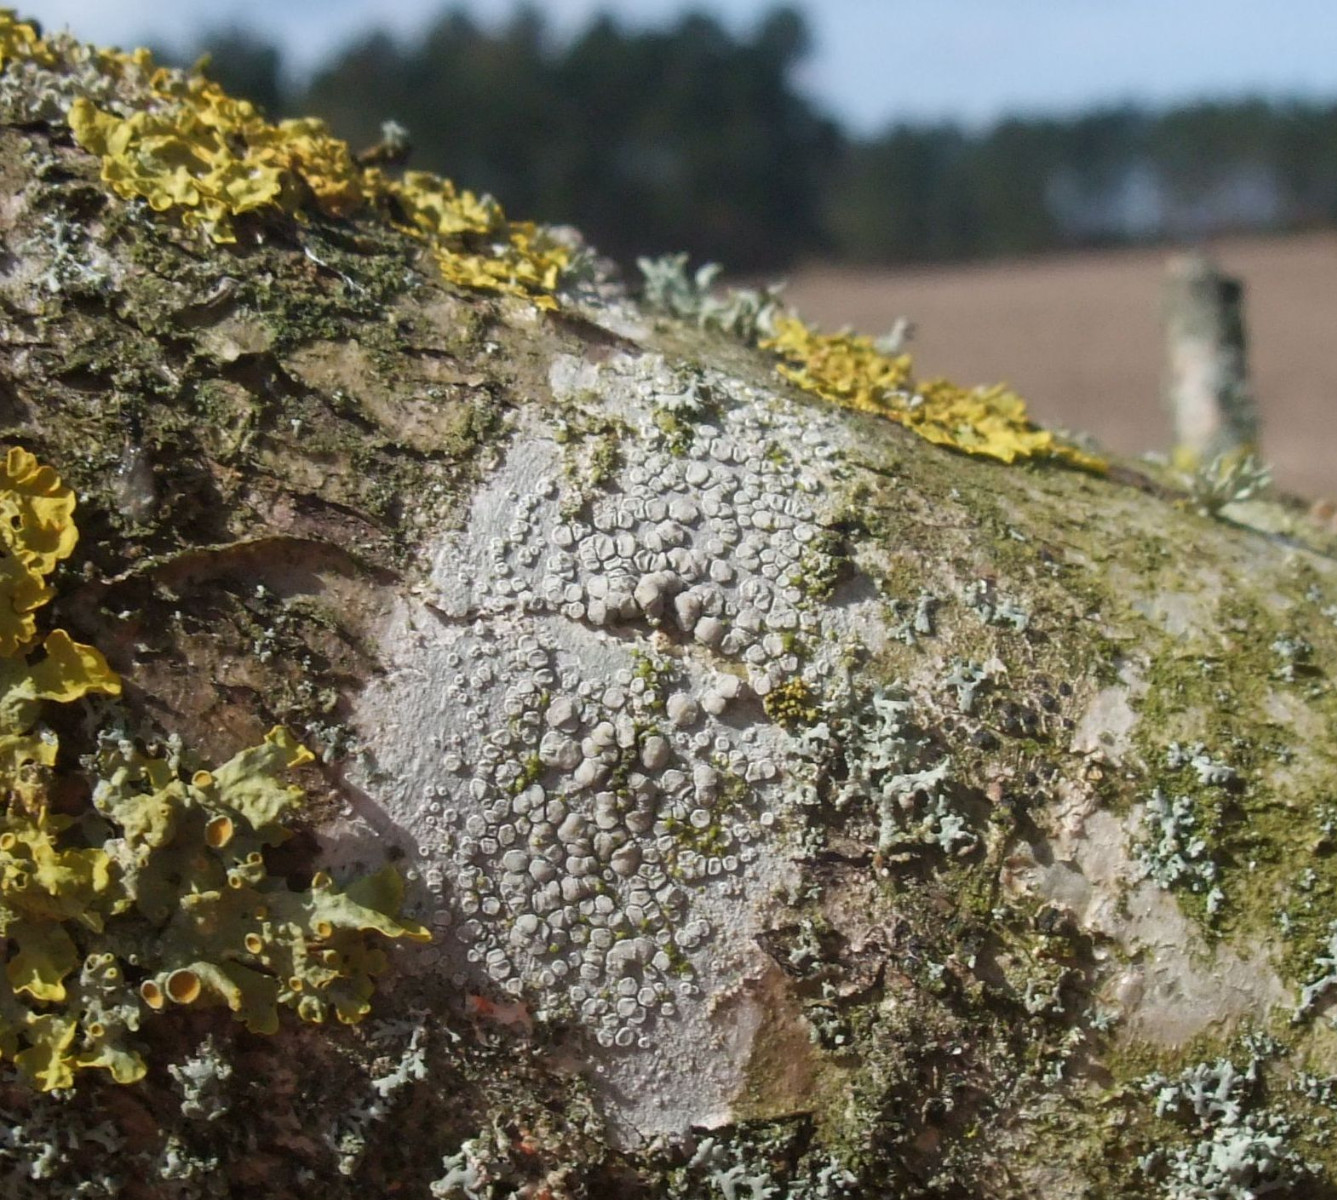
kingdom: Fungi
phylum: Ascomycota
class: Lecanoromycetes
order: Lecanorales
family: Lecanoraceae
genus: Glaucomaria
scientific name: Glaucomaria carpinea
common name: hviddugget kantskivelav
